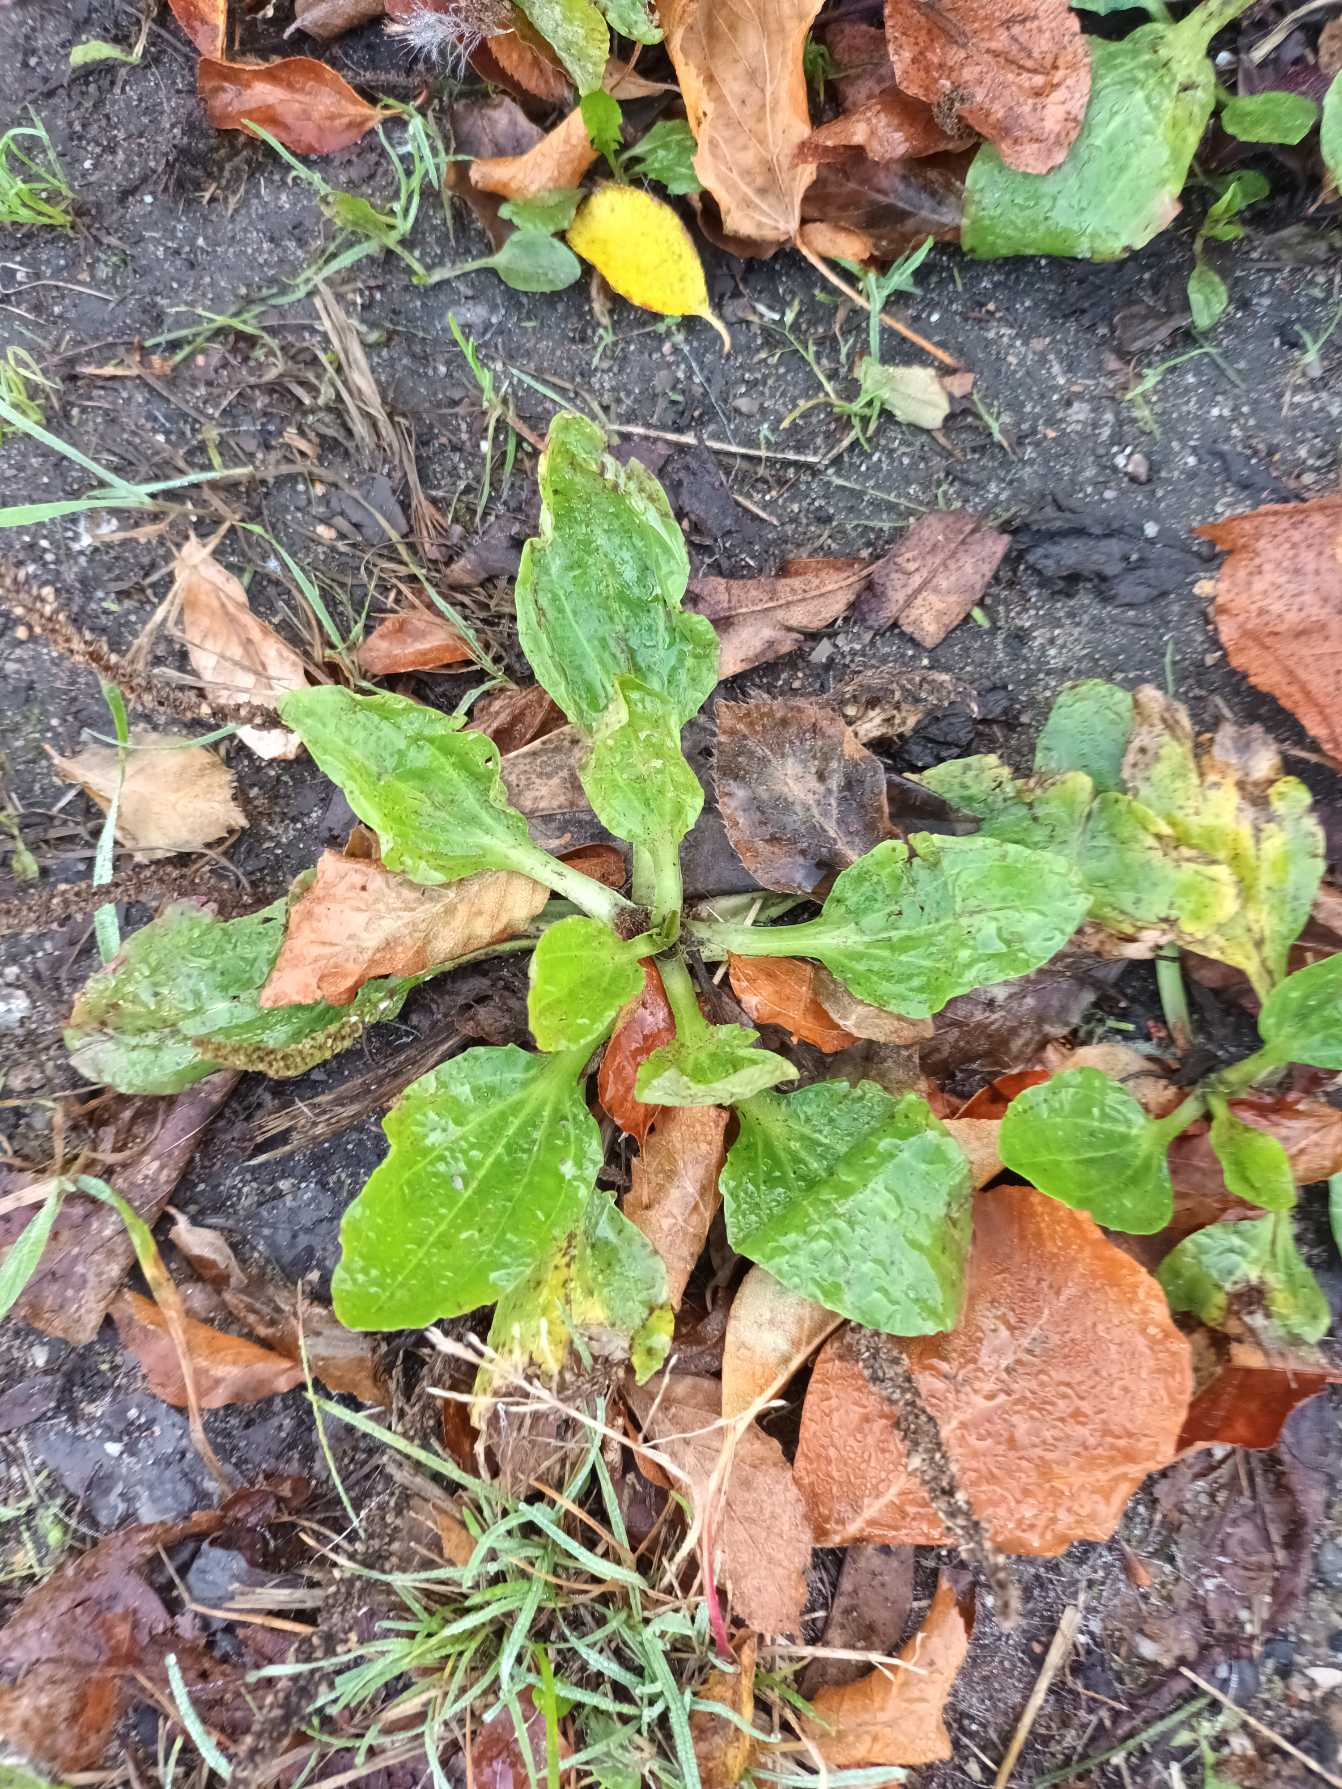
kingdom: Plantae
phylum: Tracheophyta
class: Magnoliopsida
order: Lamiales
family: Plantaginaceae
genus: Plantago
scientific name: Plantago major
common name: Glat vejbred
